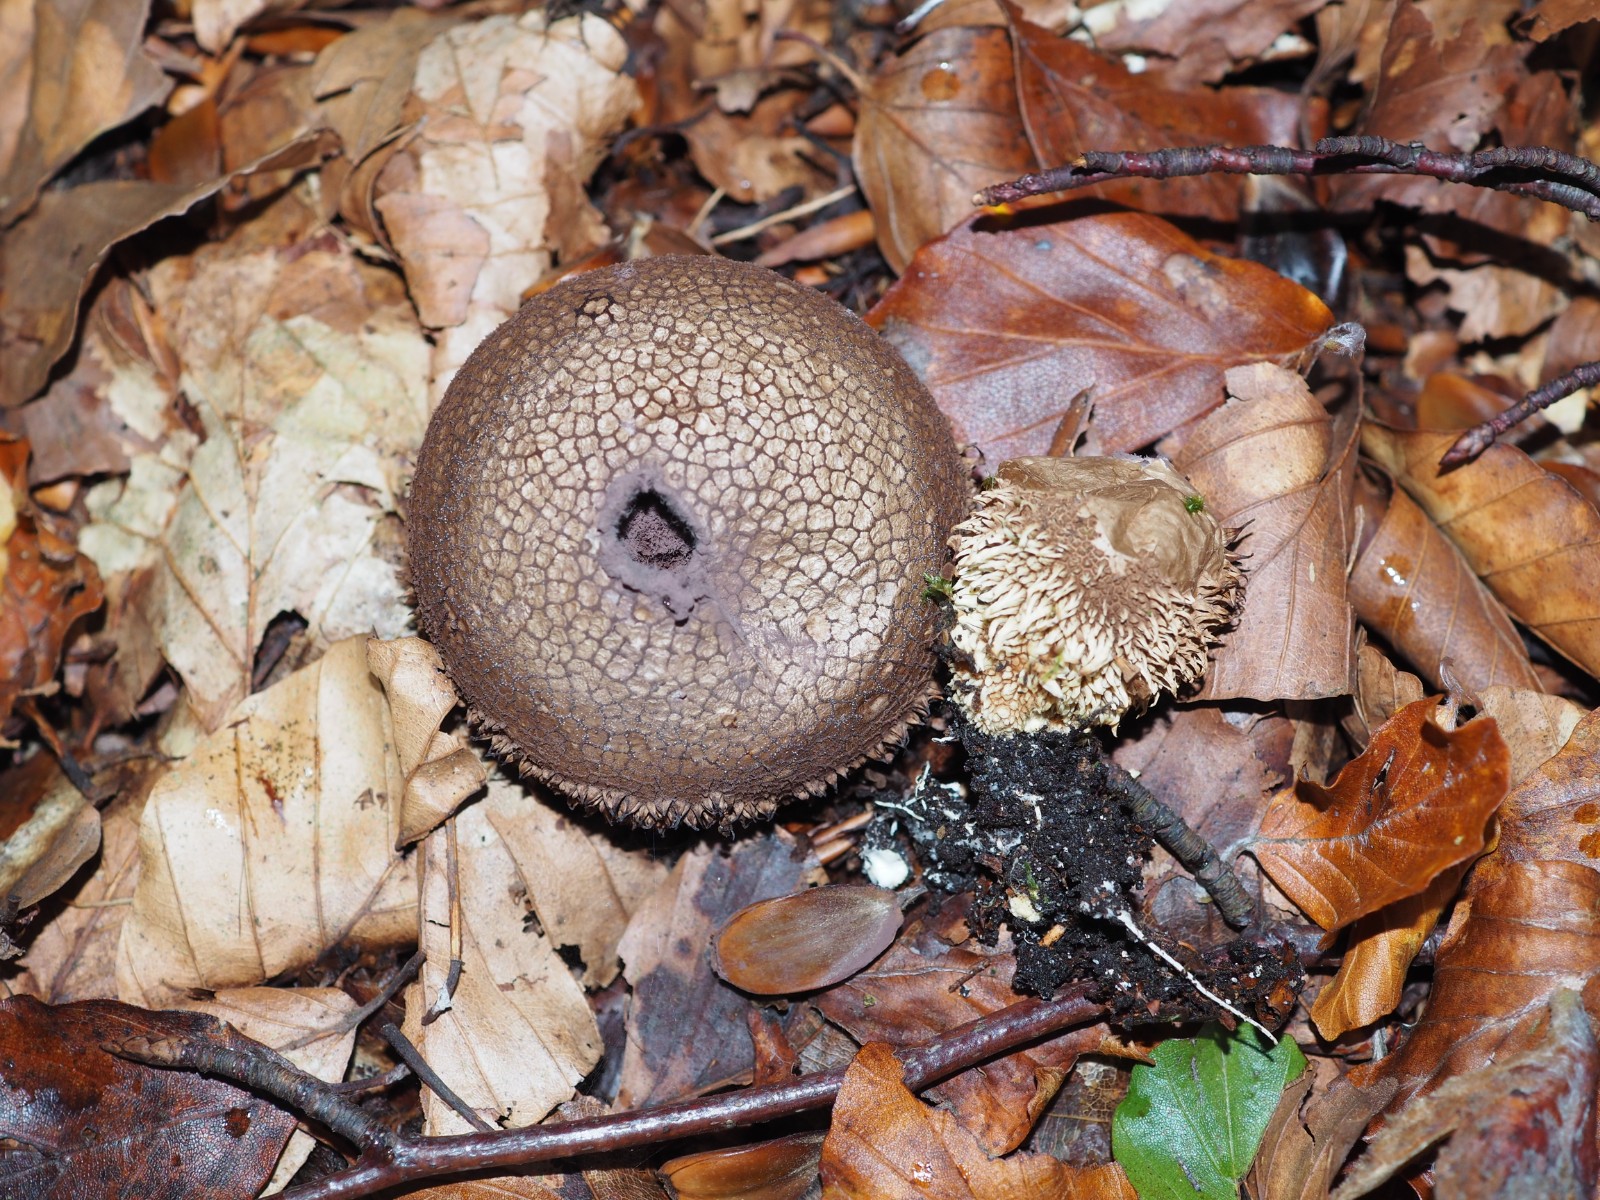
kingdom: Fungi
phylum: Basidiomycota
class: Agaricomycetes
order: Agaricales
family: Lycoperdaceae
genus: Lycoperdon
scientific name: Lycoperdon echinatum
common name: pindsvine-støvbold
